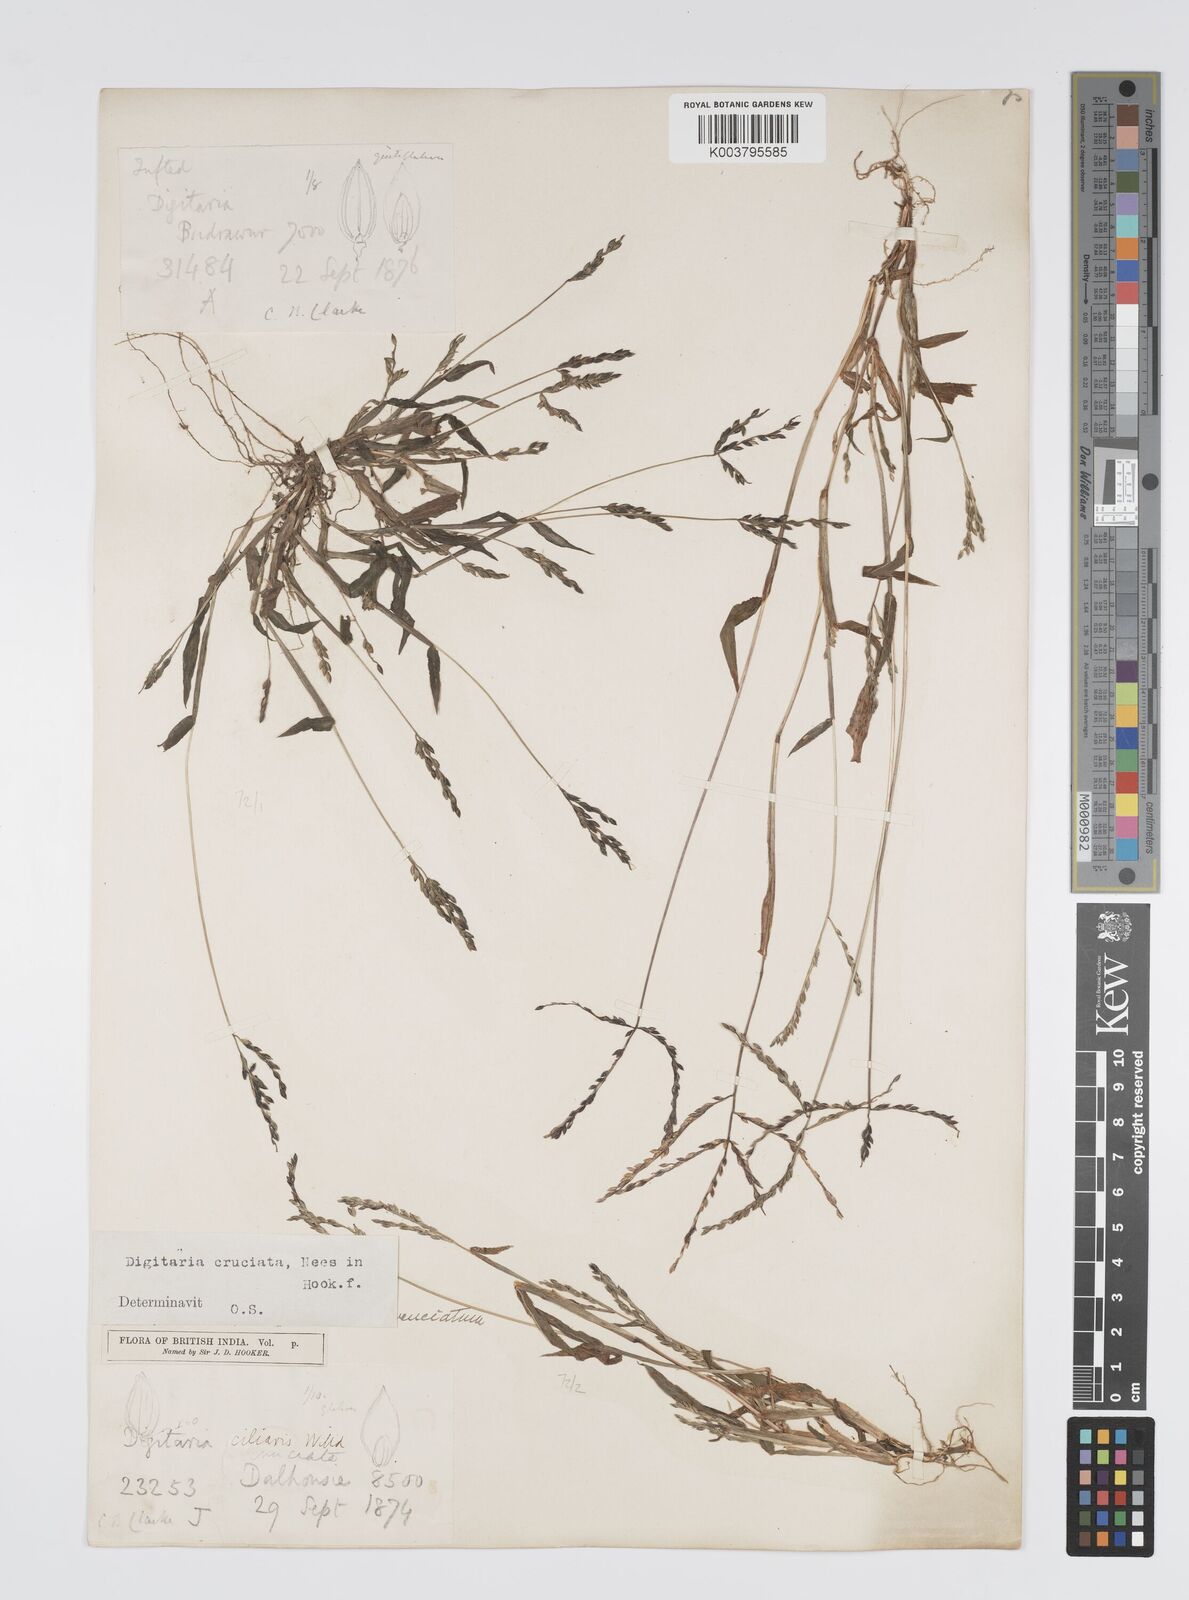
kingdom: Plantae
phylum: Tracheophyta
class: Liliopsida
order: Poales
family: Poaceae
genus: Digitaria
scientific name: Digitaria sanguinalis
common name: Hairy crabgrass
